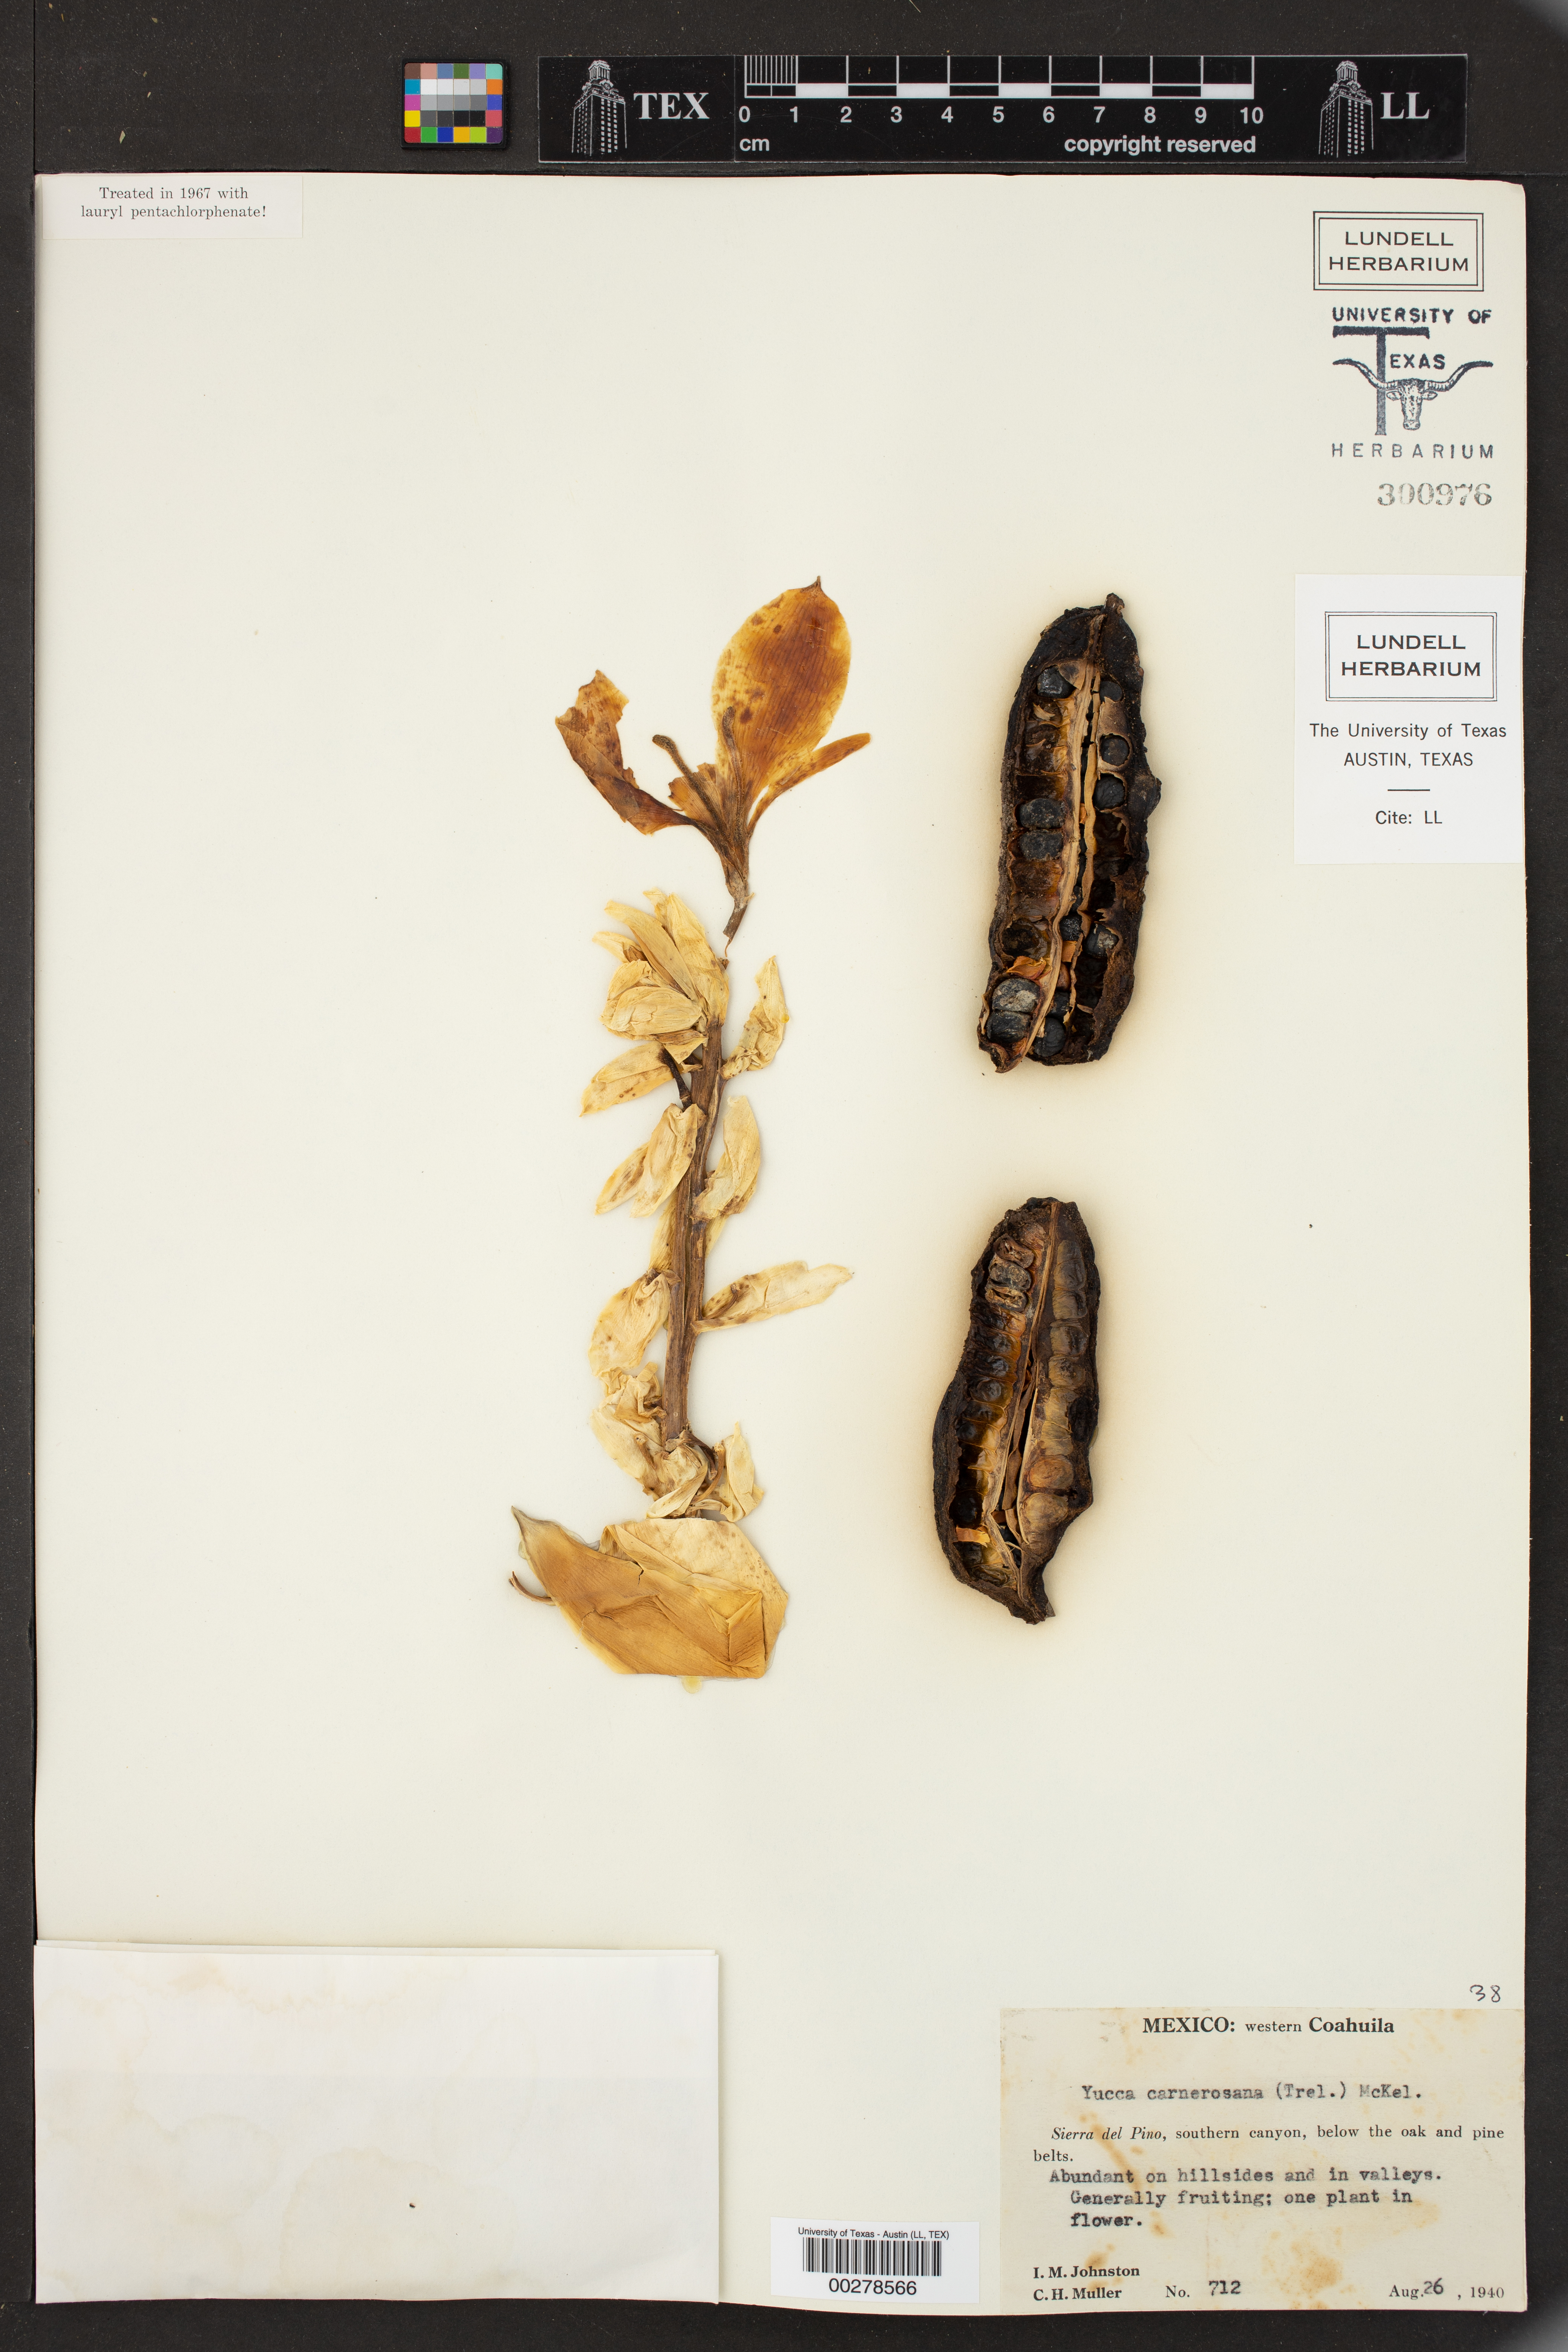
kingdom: Plantae
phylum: Tracheophyta
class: Liliopsida
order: Asparagales
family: Asparagaceae
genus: Yucca
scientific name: Yucca carnerosana
